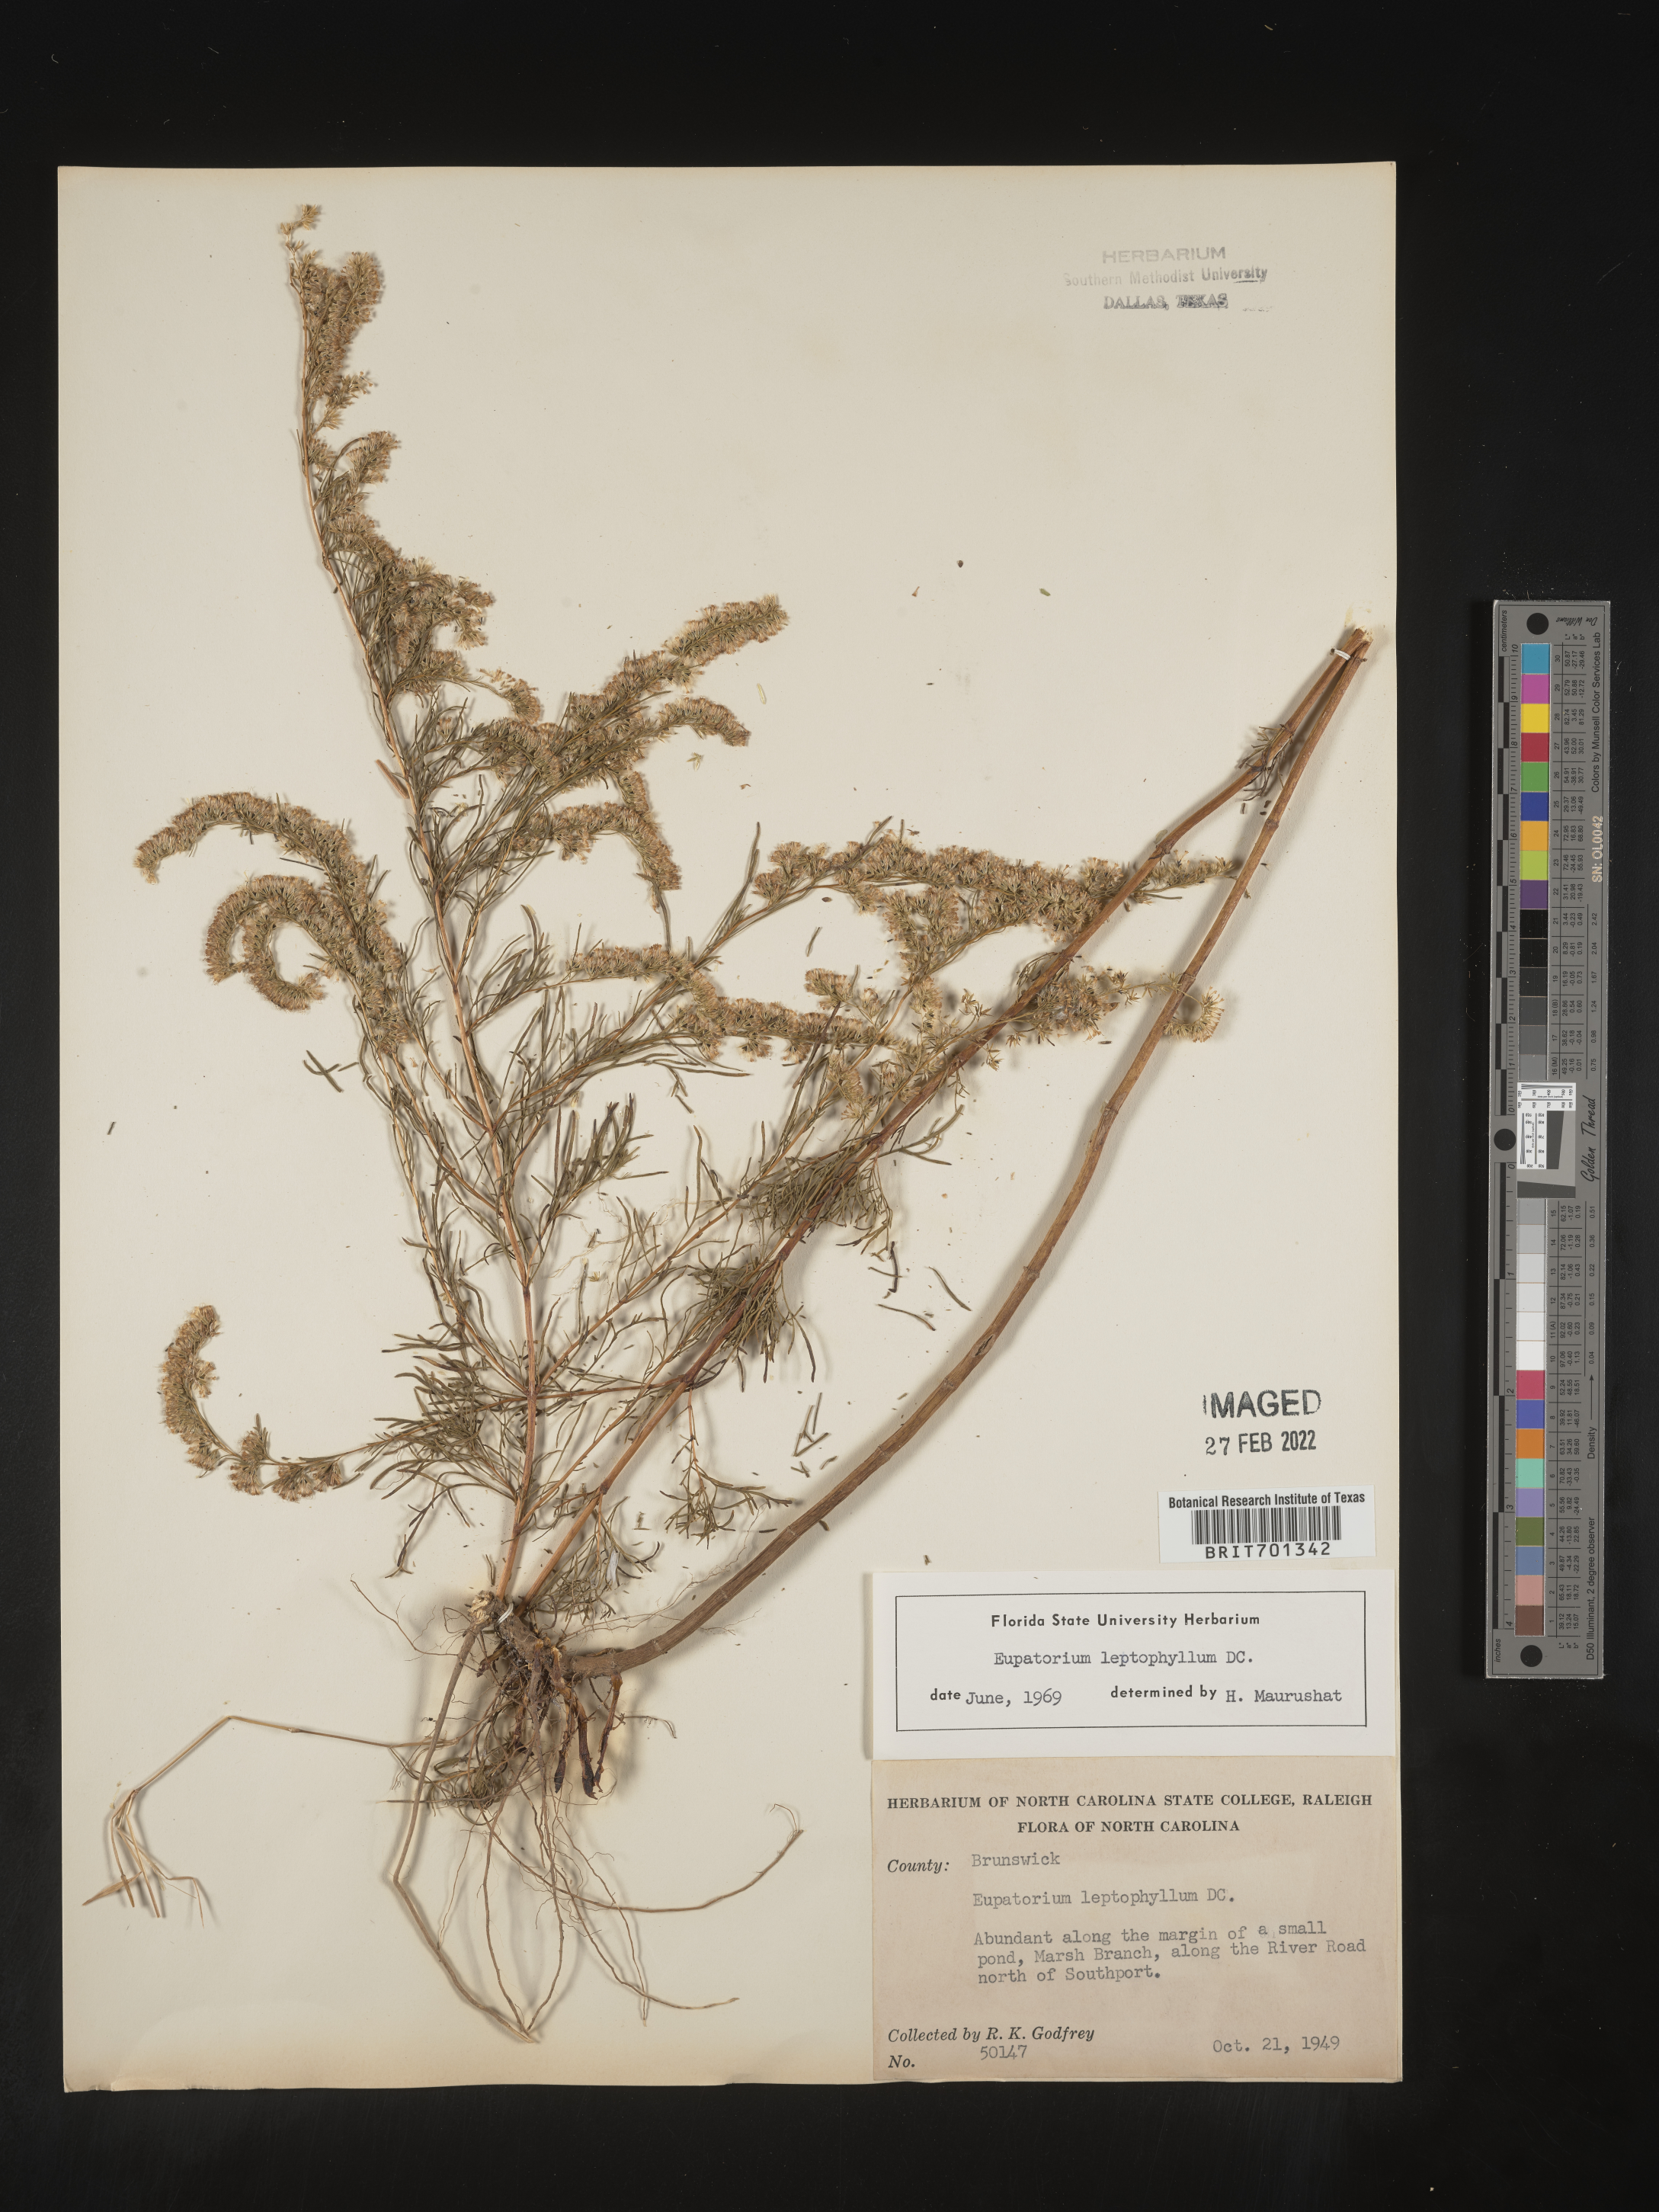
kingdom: Plantae
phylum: Tracheophyta
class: Magnoliopsida
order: Asterales
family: Asteraceae
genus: Eupatorium
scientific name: Eupatorium leptophyllum
